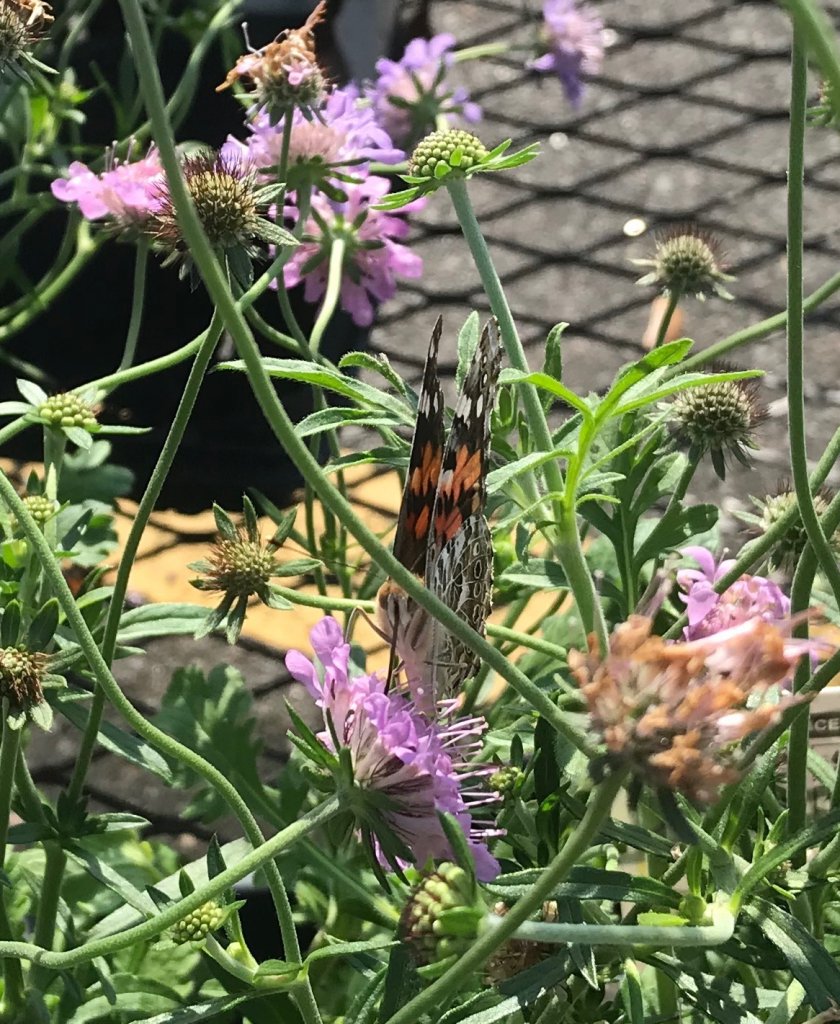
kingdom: Animalia
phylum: Arthropoda
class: Insecta
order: Lepidoptera
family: Nymphalidae
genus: Vanessa
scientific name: Vanessa cardui
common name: Painted Lady
